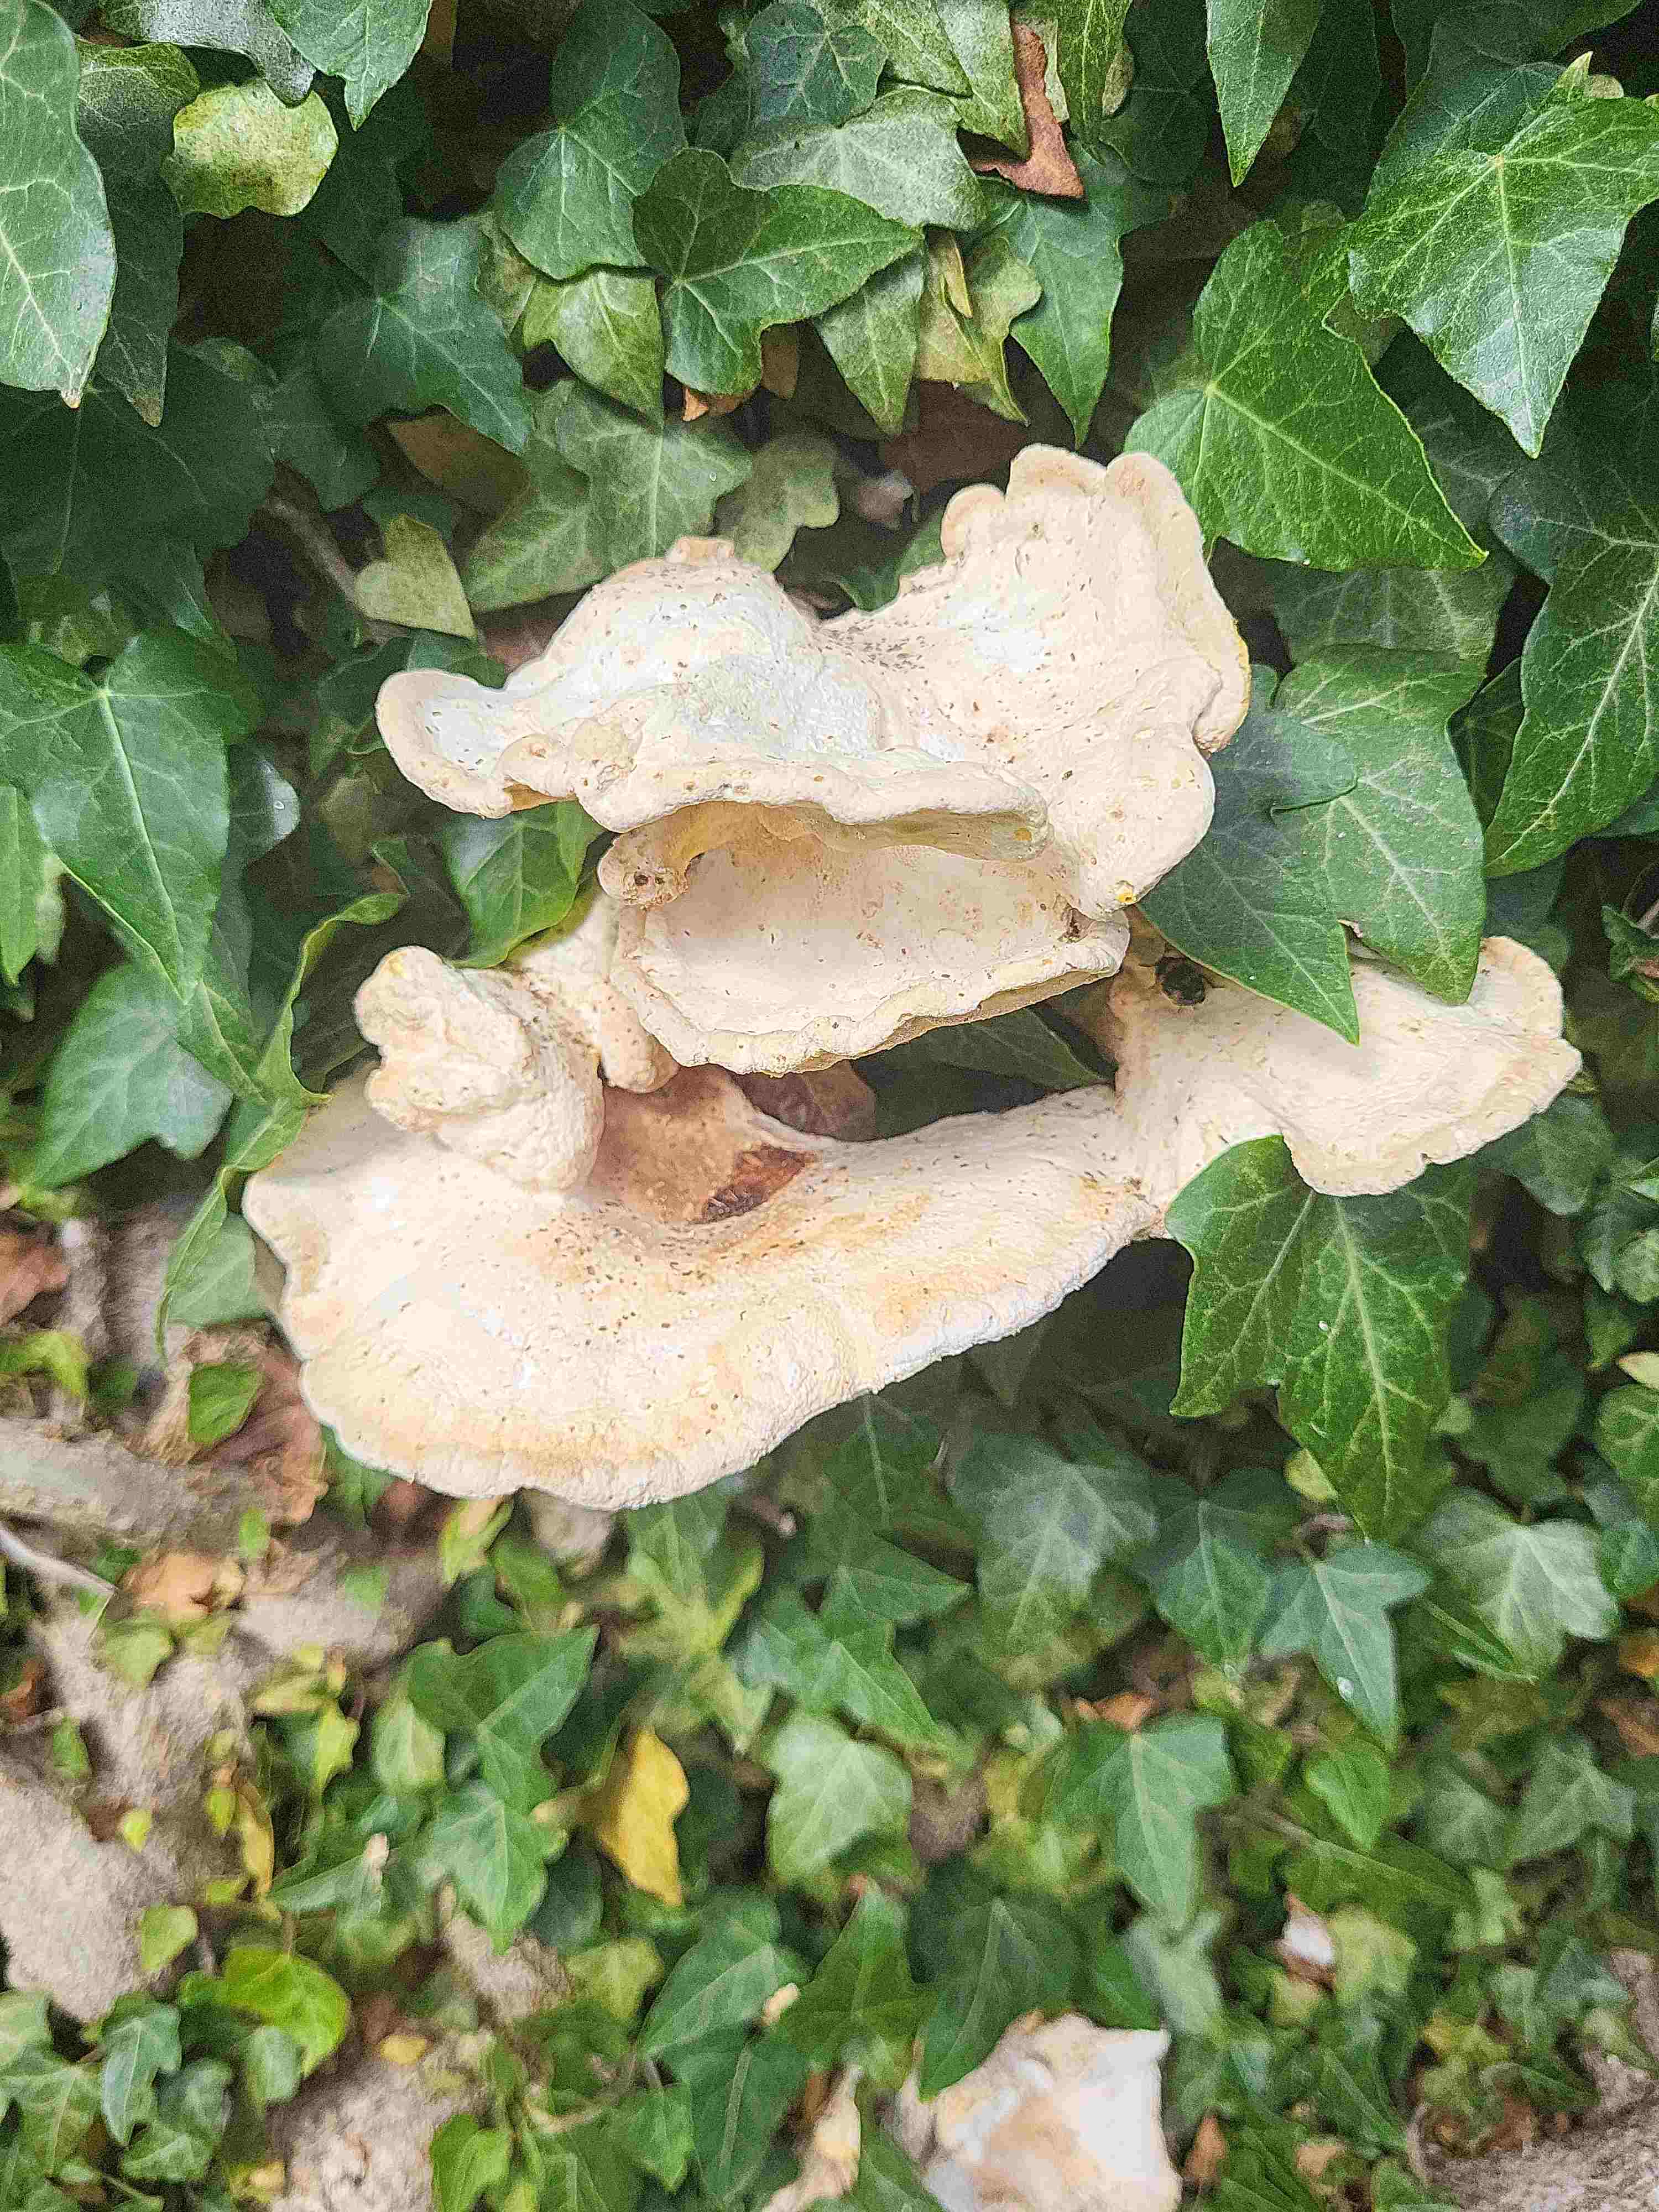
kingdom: Fungi
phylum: Basidiomycota
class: Agaricomycetes
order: Polyporales
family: Laetiporaceae
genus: Laetiporus
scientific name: Laetiporus sulphureus
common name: svovlporesvamp
